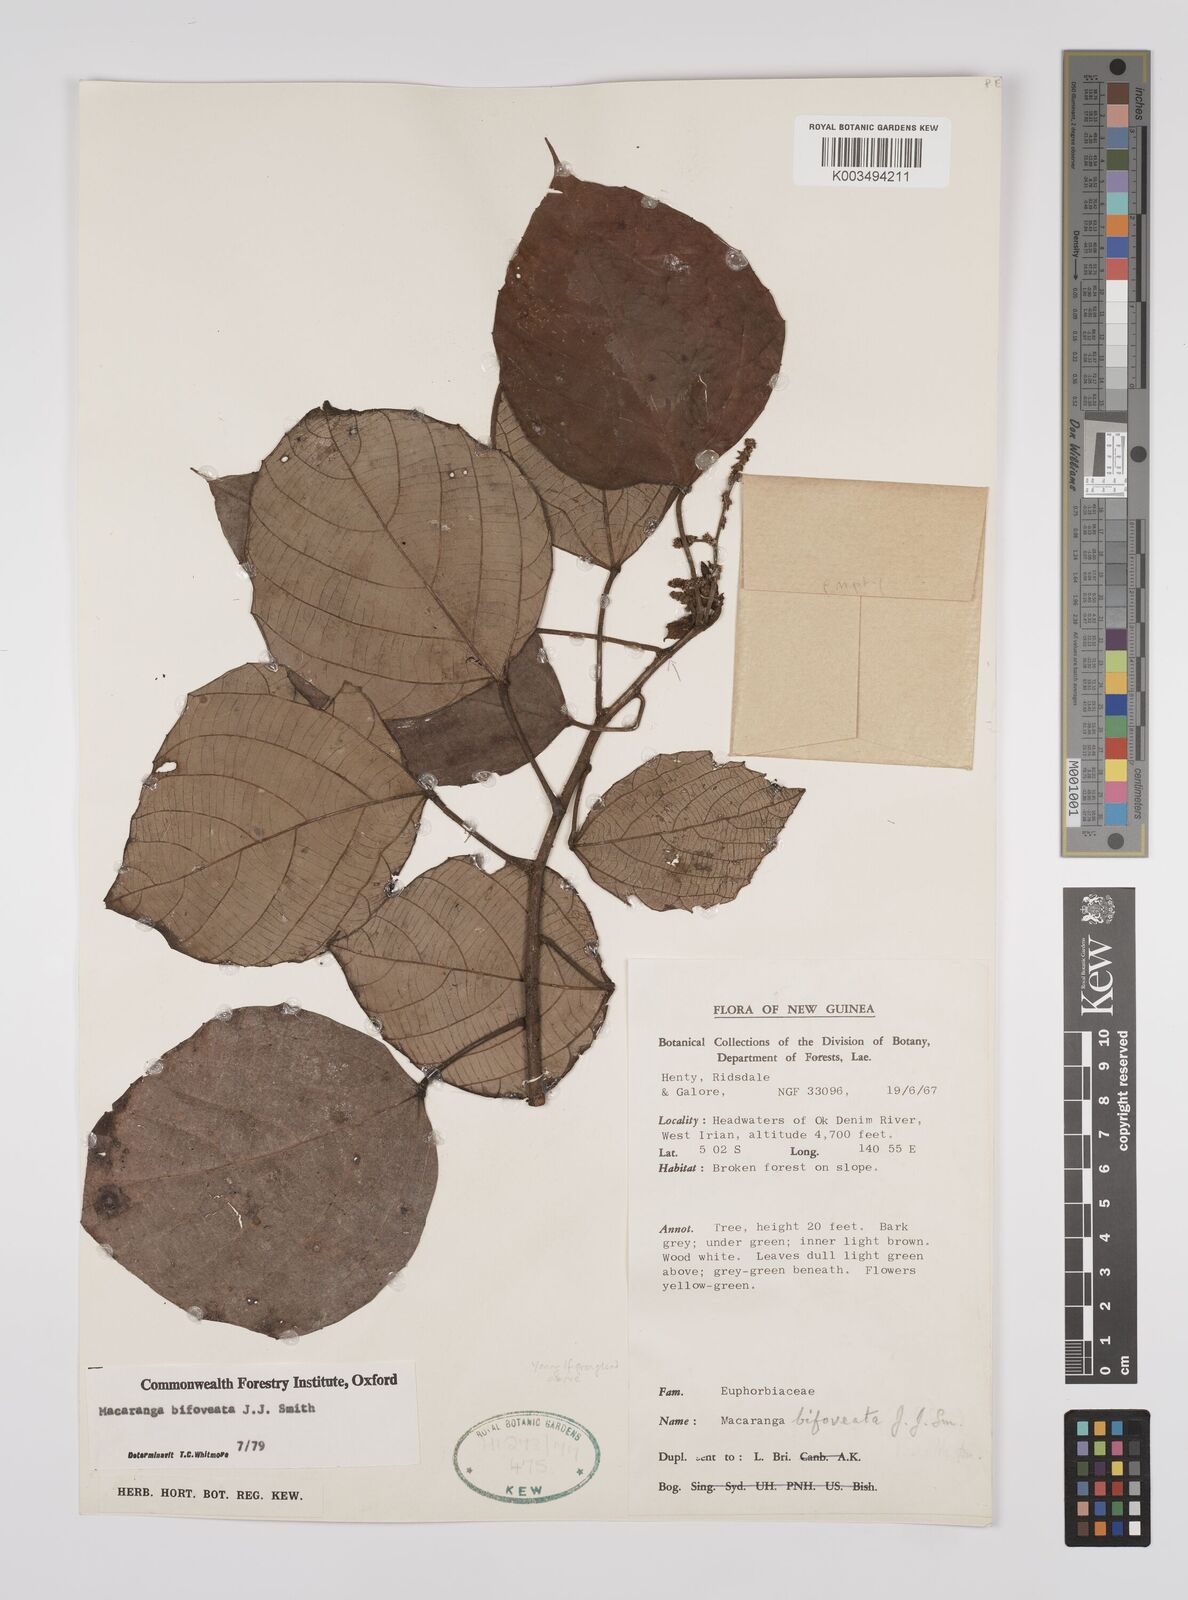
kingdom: Plantae
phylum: Tracheophyta
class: Magnoliopsida
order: Malpighiales
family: Euphorbiaceae
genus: Macaranga
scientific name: Macaranga bifoveata
